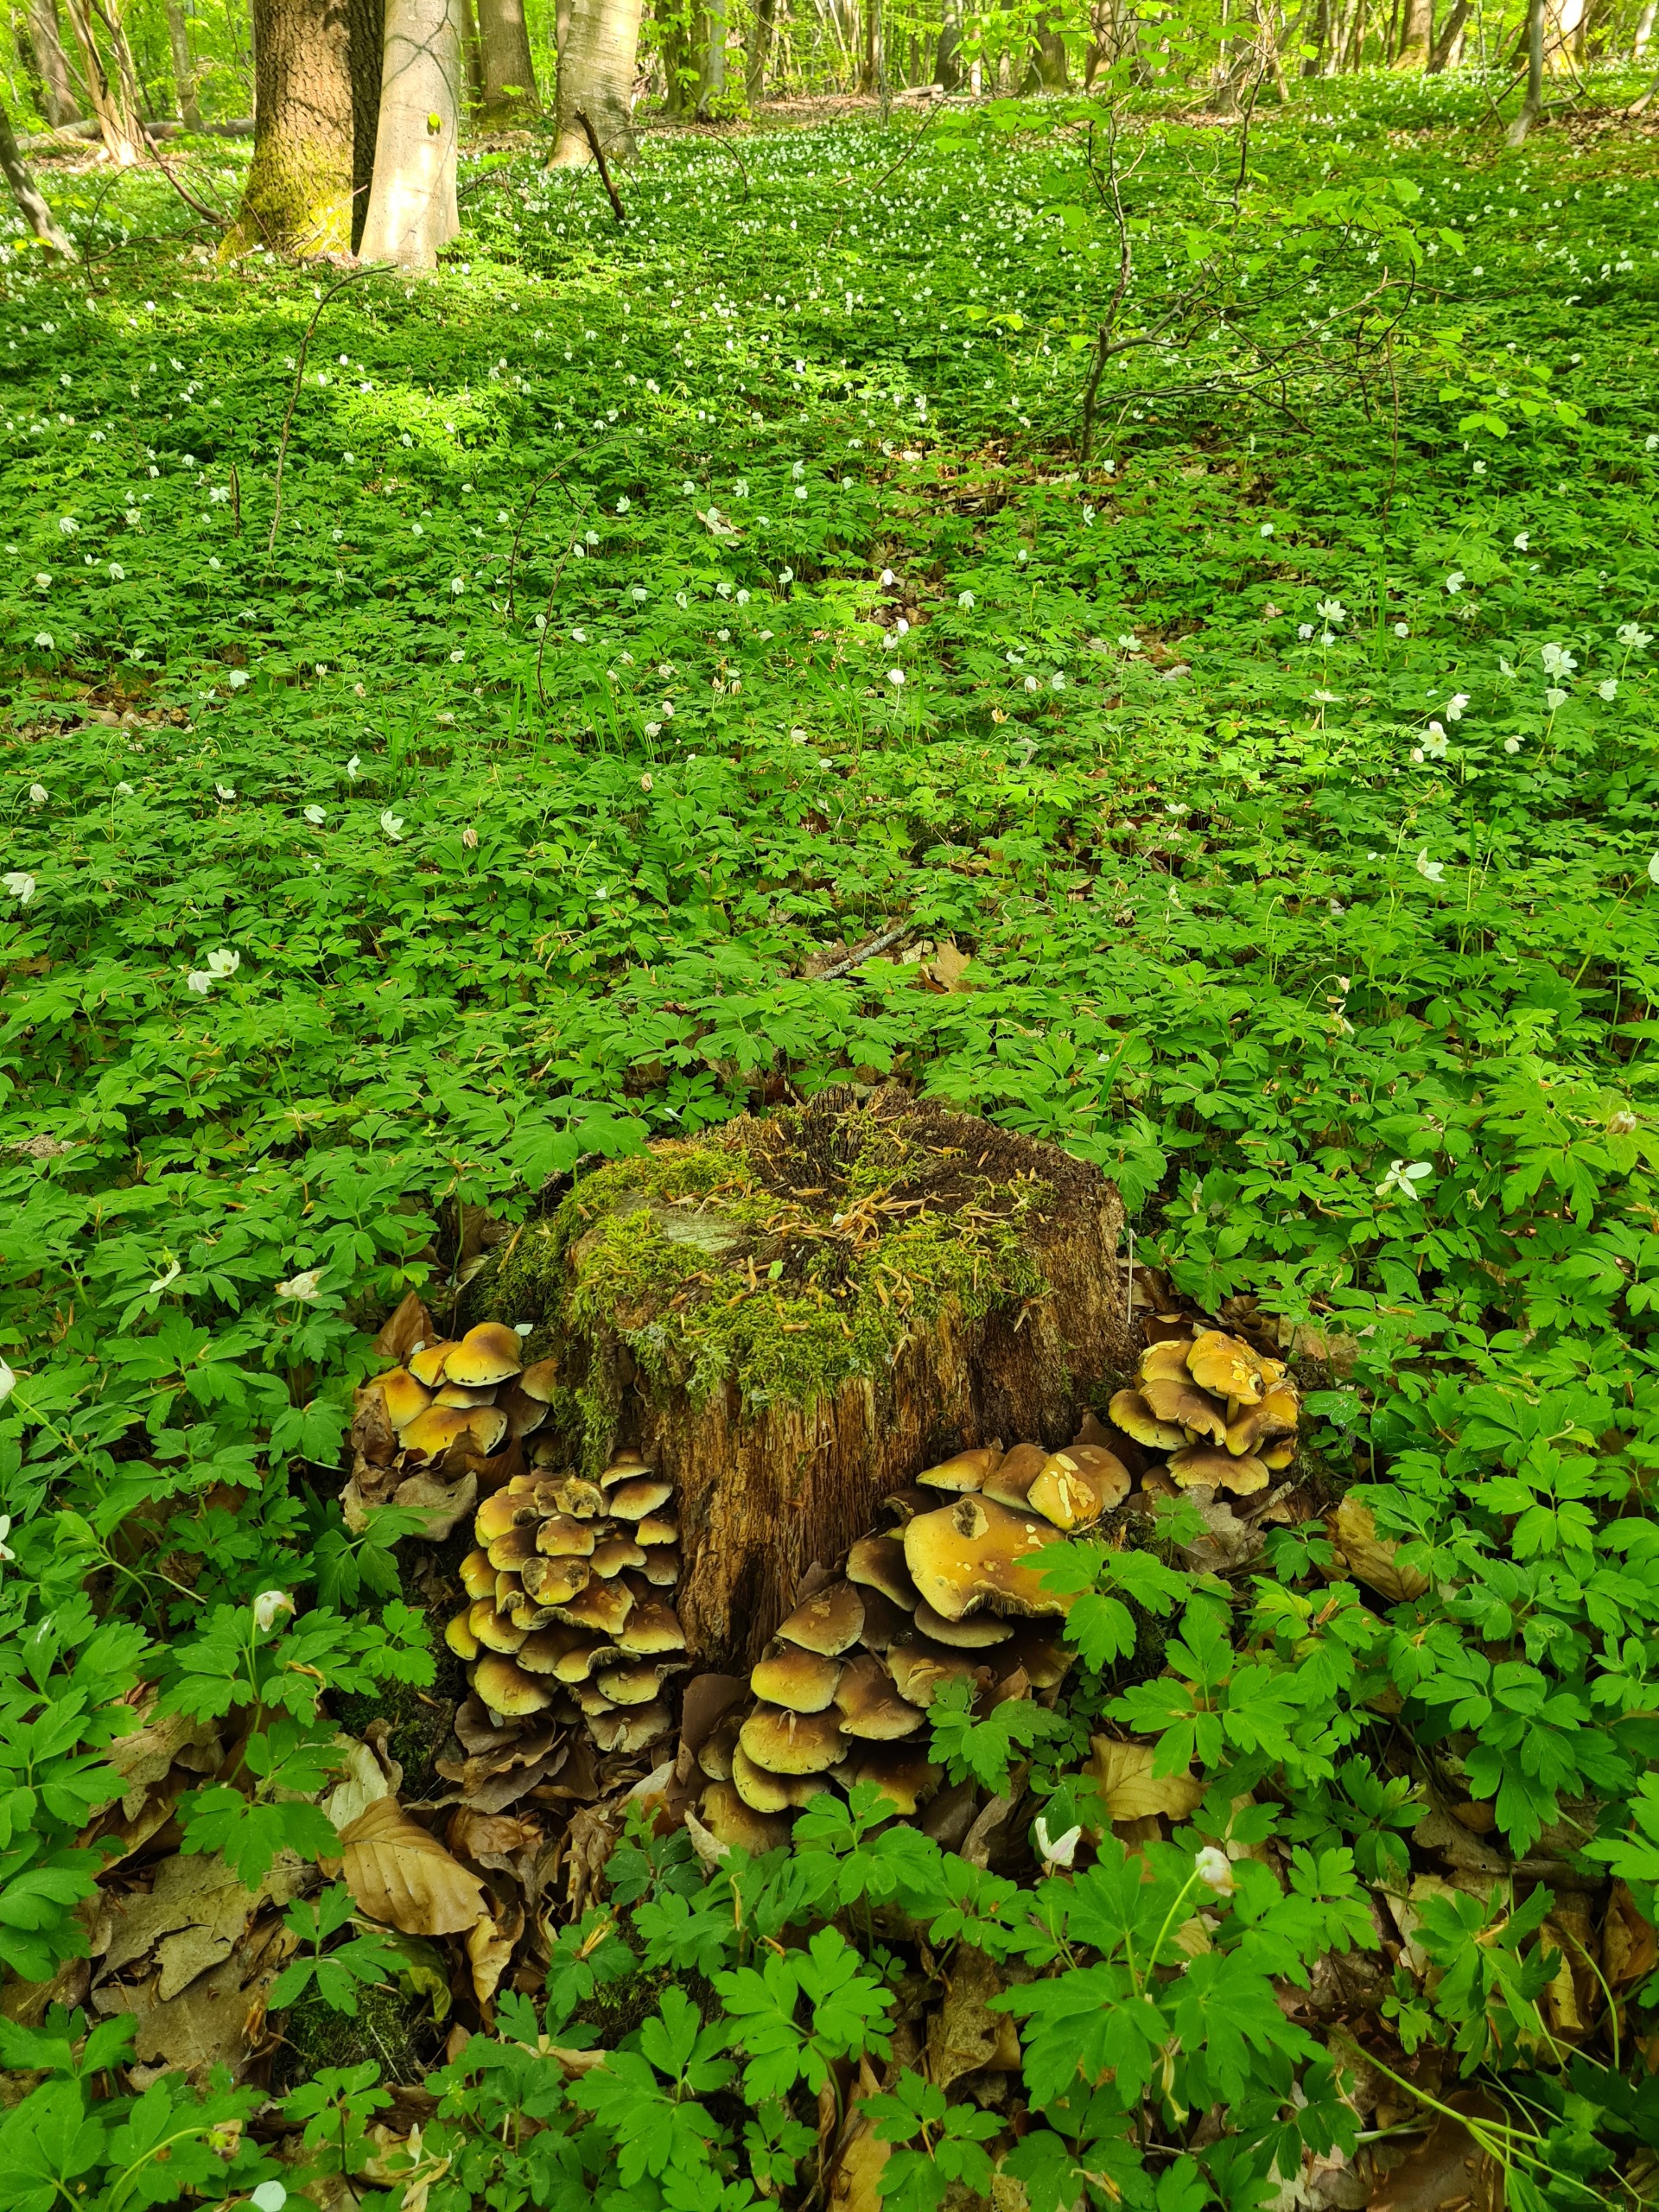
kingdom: Fungi
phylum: Basidiomycota
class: Agaricomycetes
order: Agaricales
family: Strophariaceae
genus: Hypholoma
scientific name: Hypholoma fasciculare
